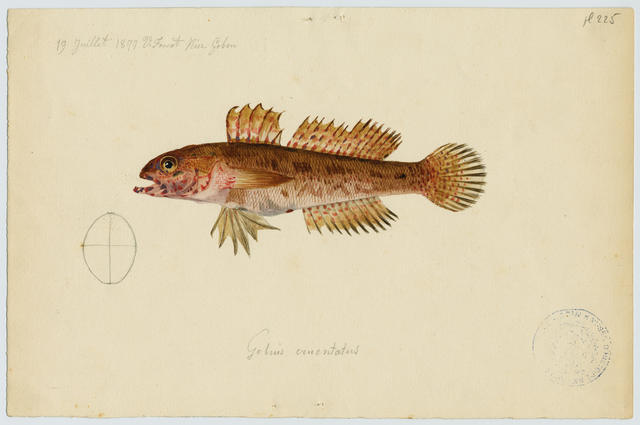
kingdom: Animalia
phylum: Chordata
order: Perciformes
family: Gobiidae
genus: Gobius
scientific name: Gobius cruentatus
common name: Red-mouthed goby
